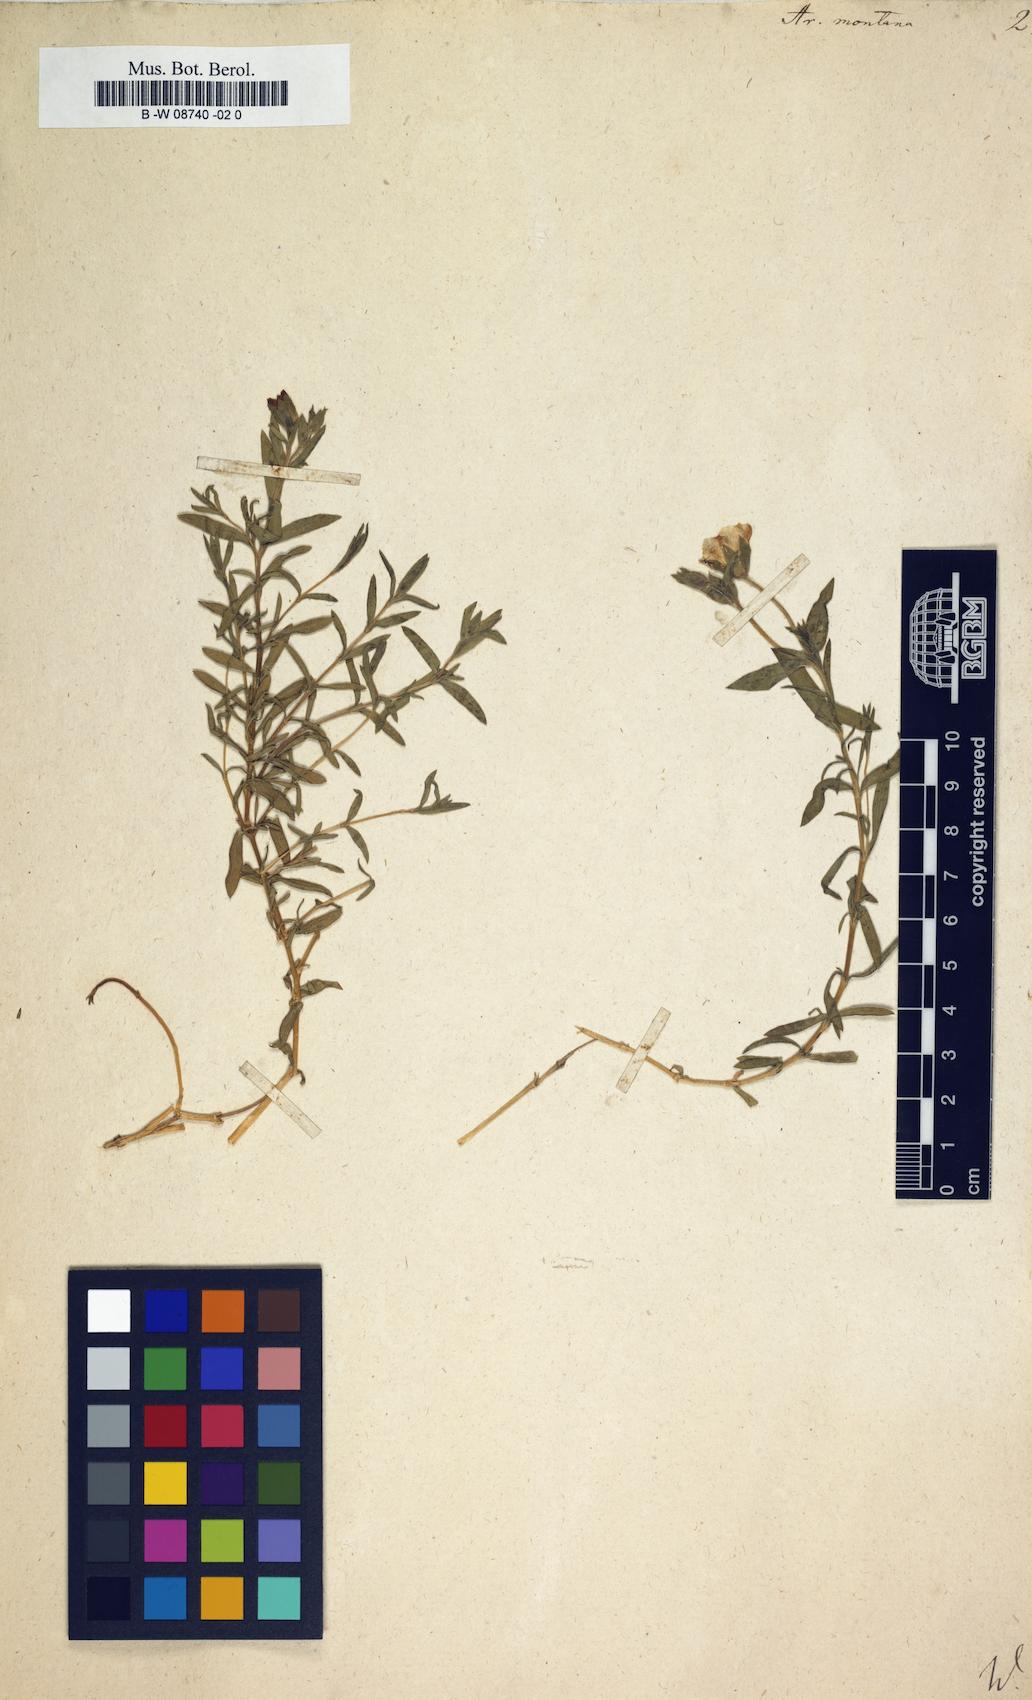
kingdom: Plantae
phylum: Tracheophyta
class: Magnoliopsida
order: Caryophyllales
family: Caryophyllaceae
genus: Arenaria
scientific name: Arenaria montana
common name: Mountain sandwort
